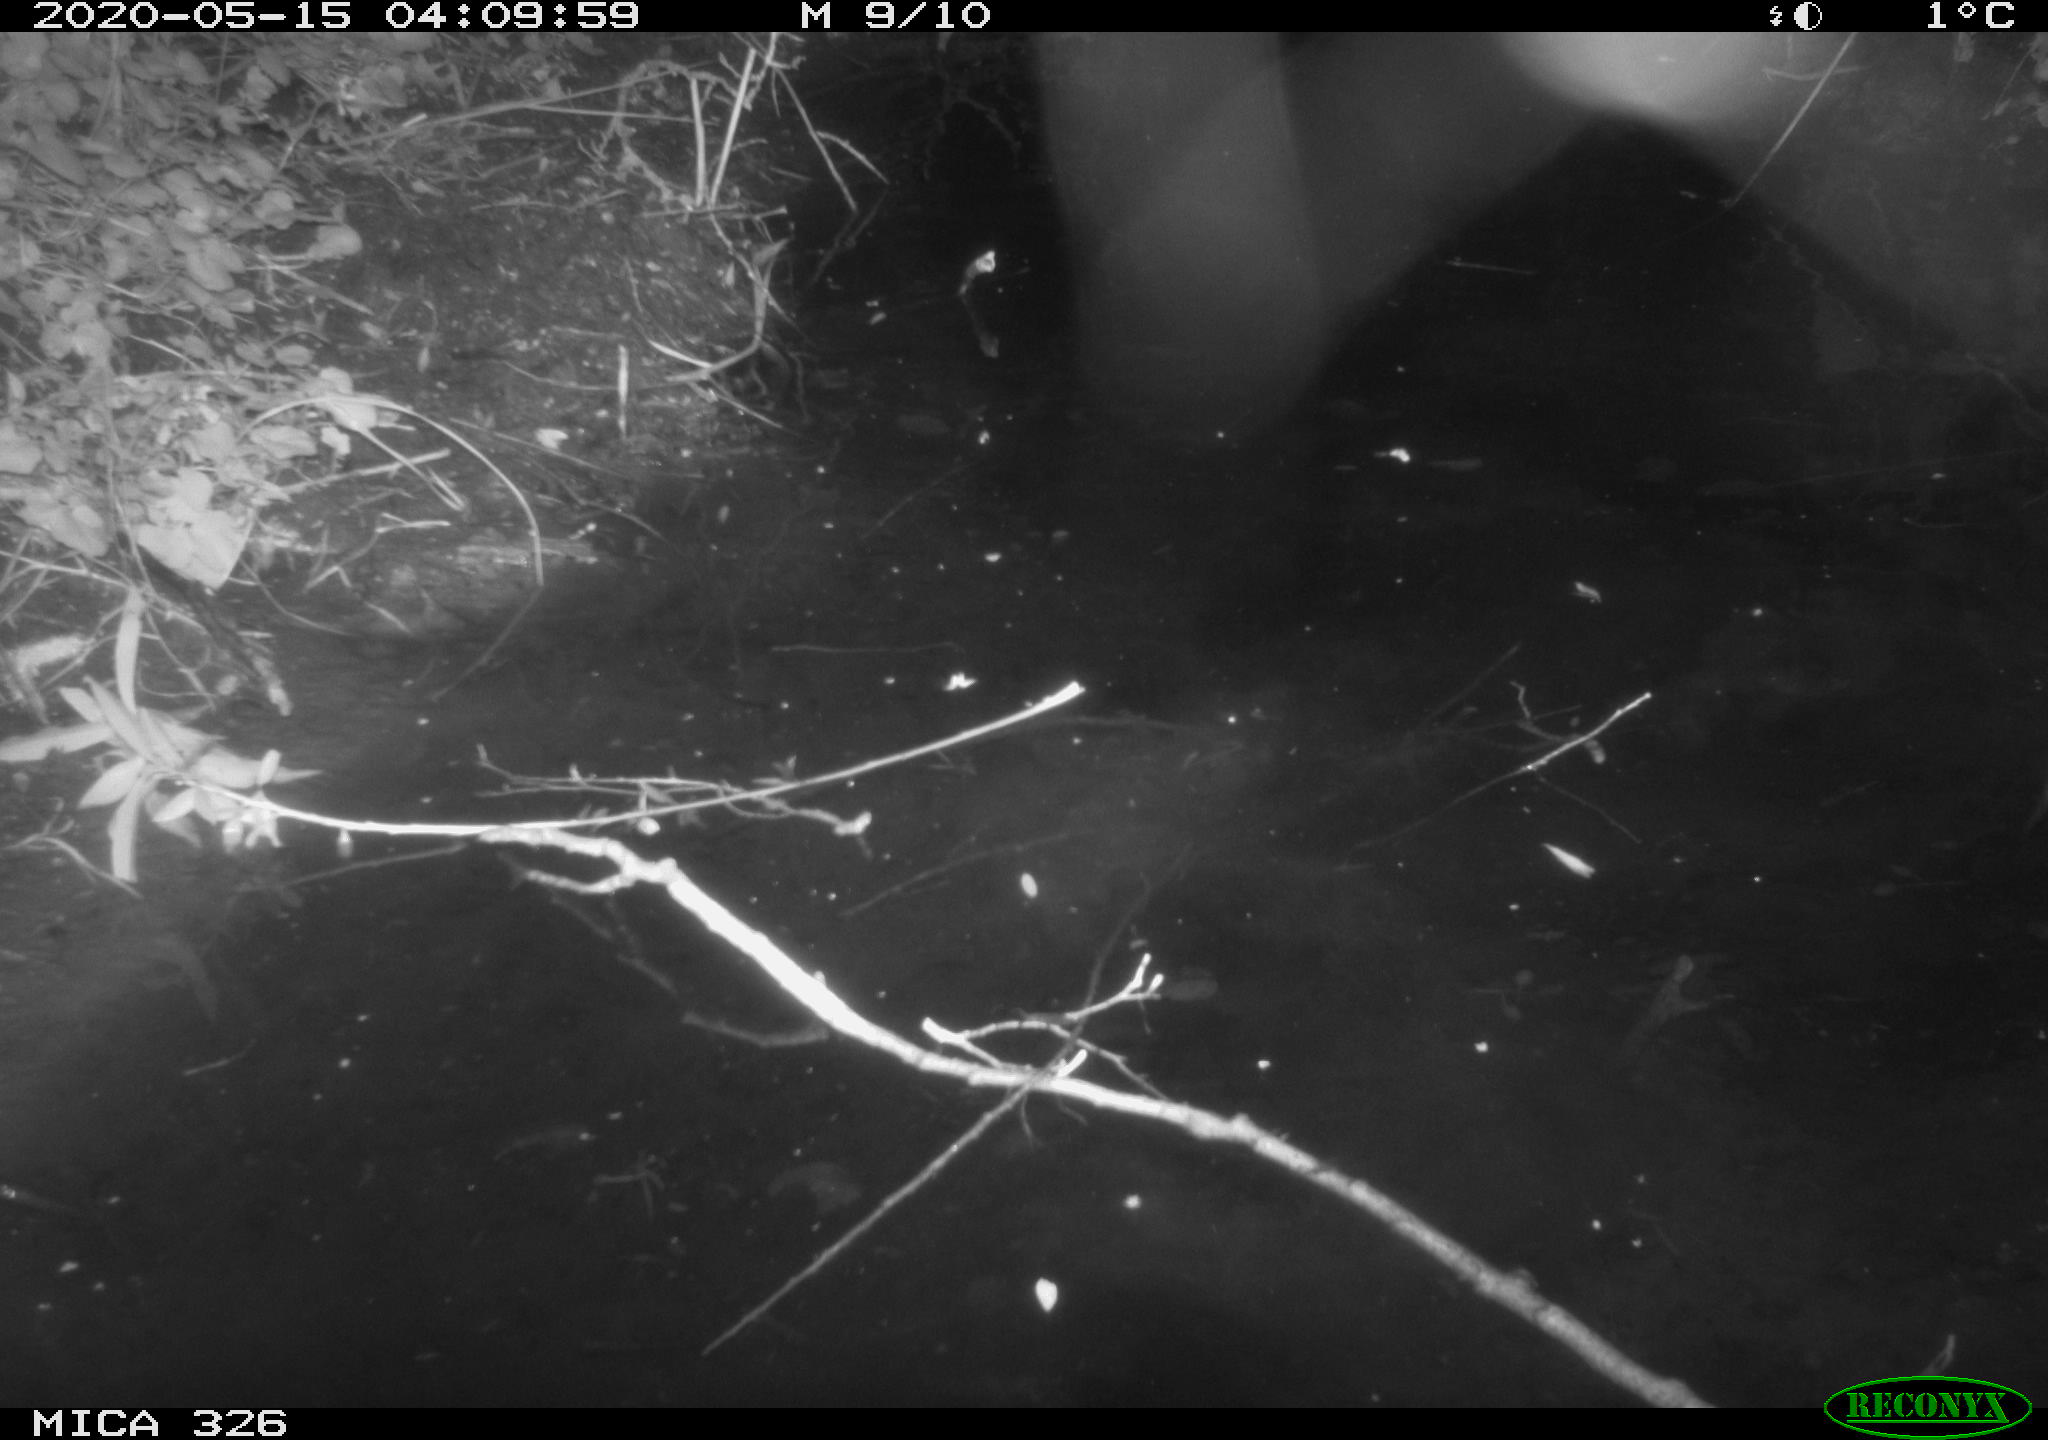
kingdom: Animalia
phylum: Chordata
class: Mammalia
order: Rodentia
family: Myocastoridae
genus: Myocastor
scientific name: Myocastor coypus
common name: Coypu
